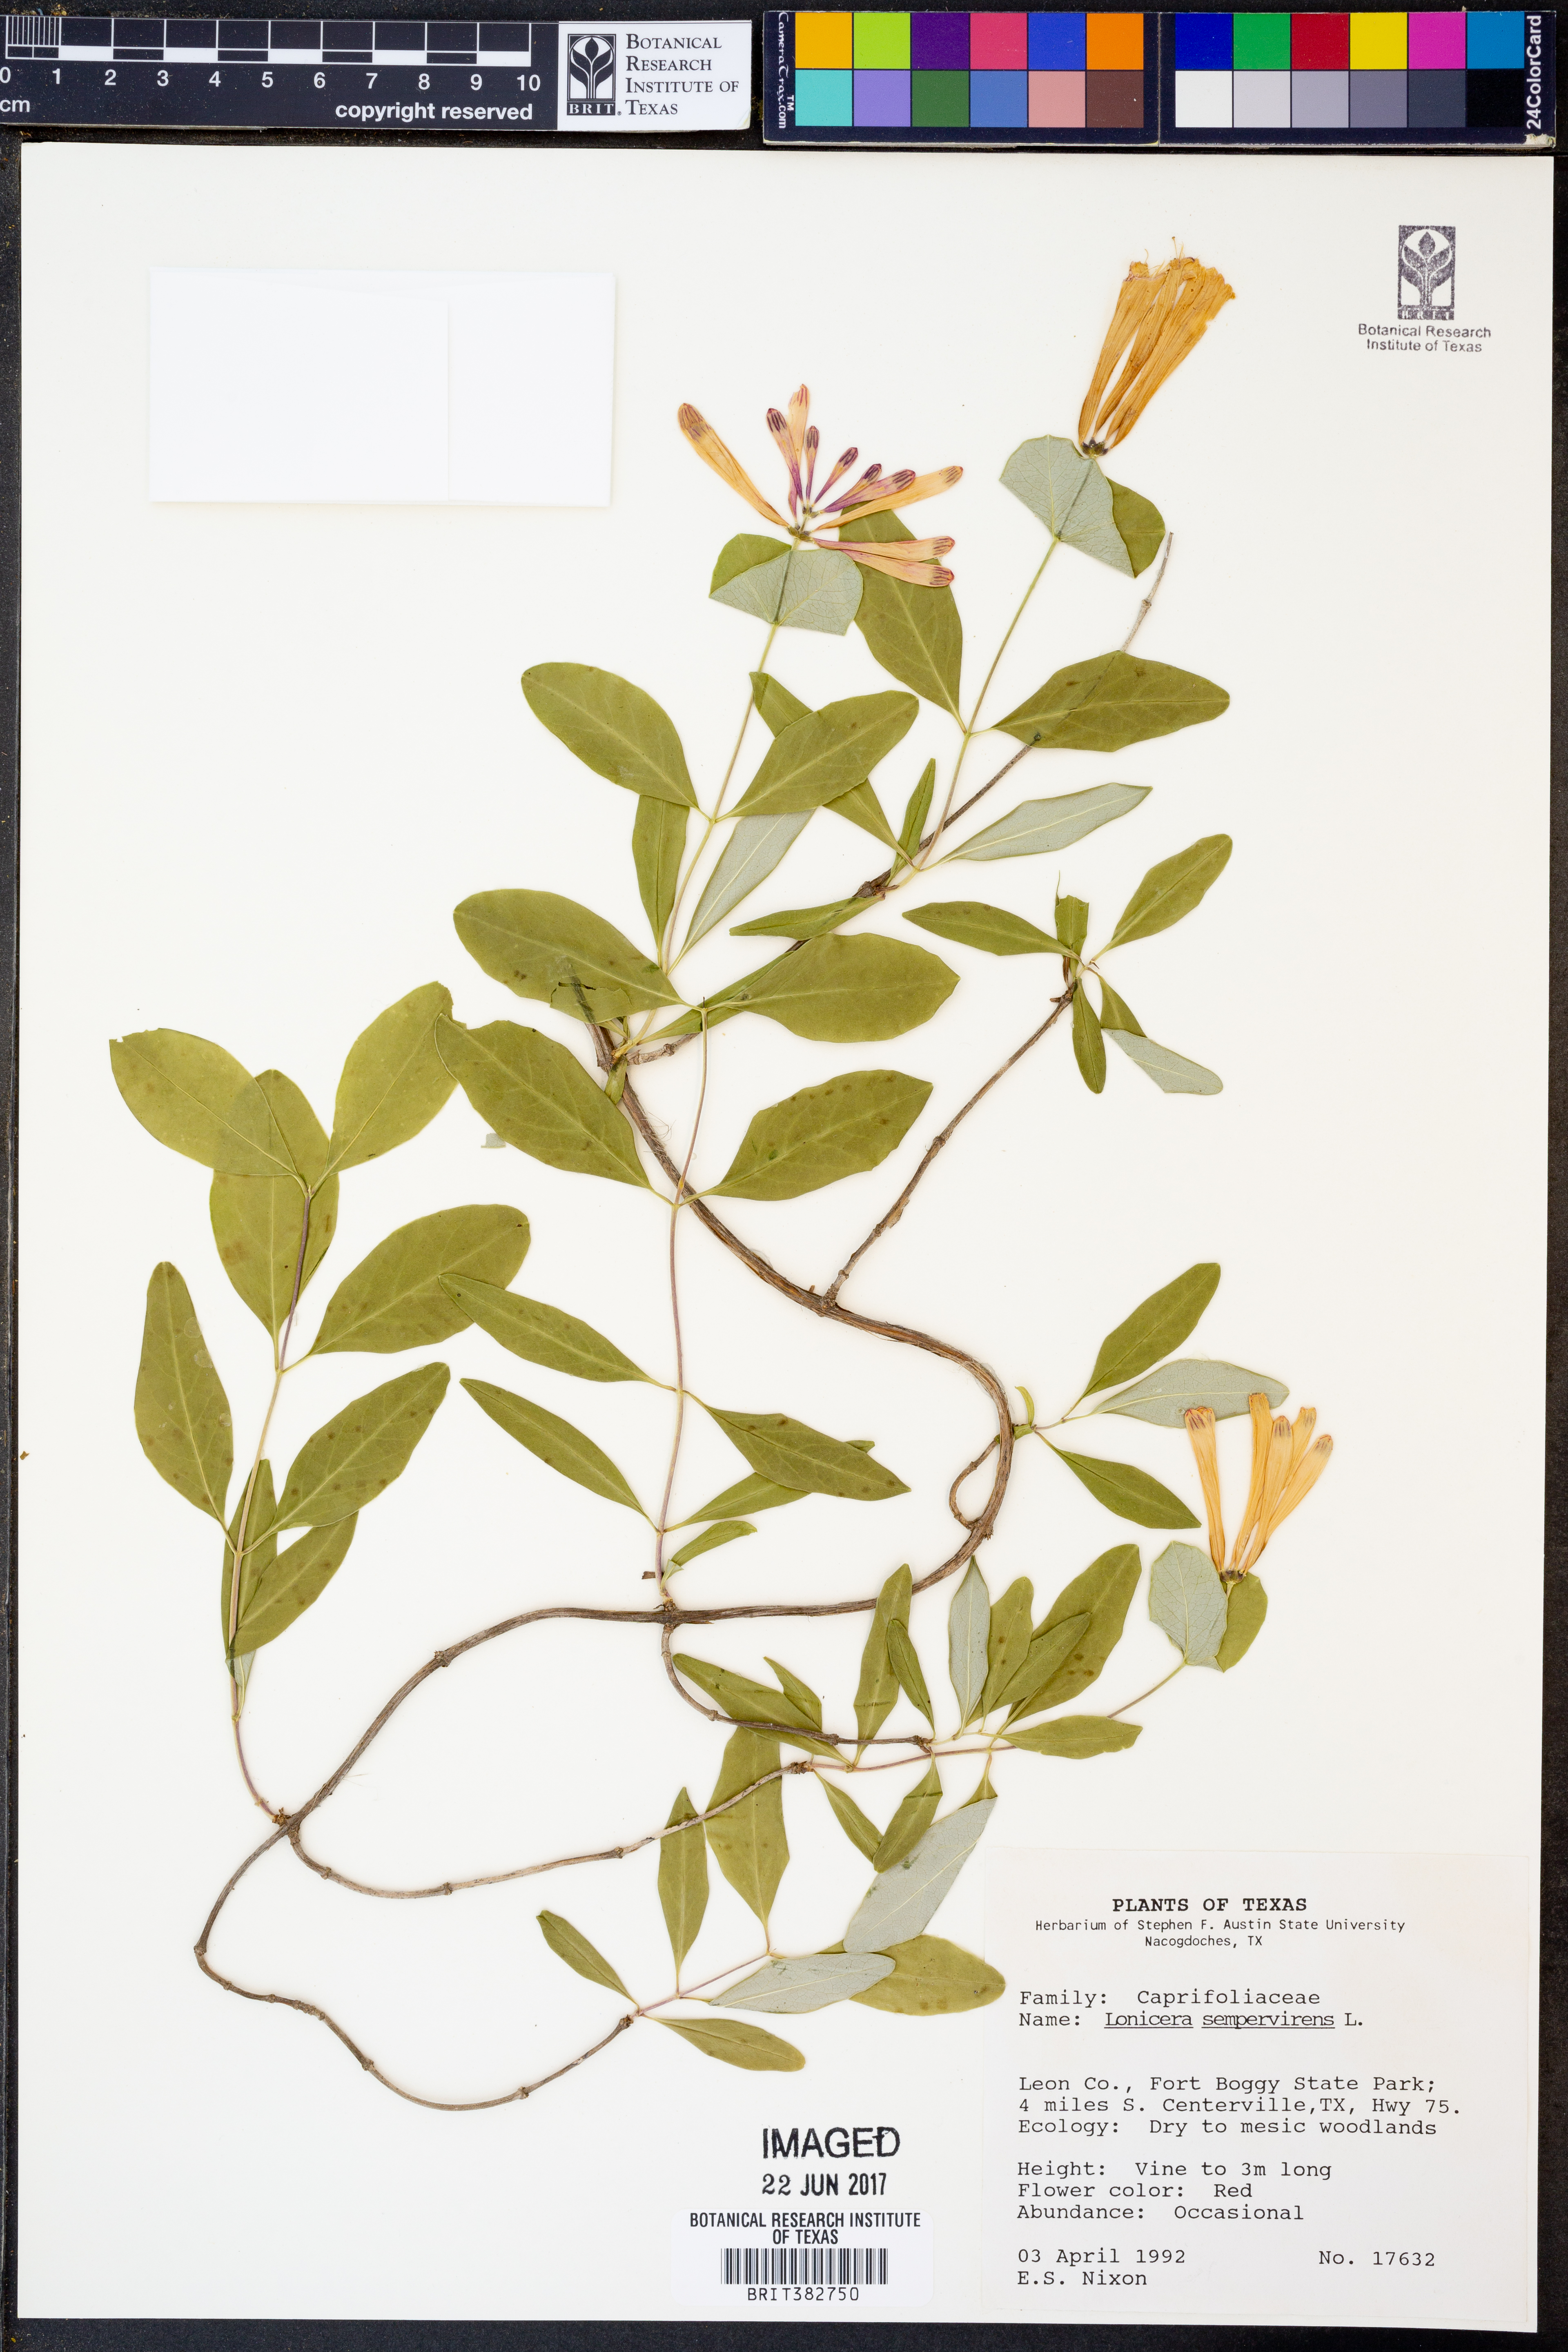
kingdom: Plantae
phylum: Tracheophyta
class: Magnoliopsida
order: Dipsacales
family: Caprifoliaceae
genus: Lonicera
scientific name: Lonicera sempervirens
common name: Coral honeysuckle
